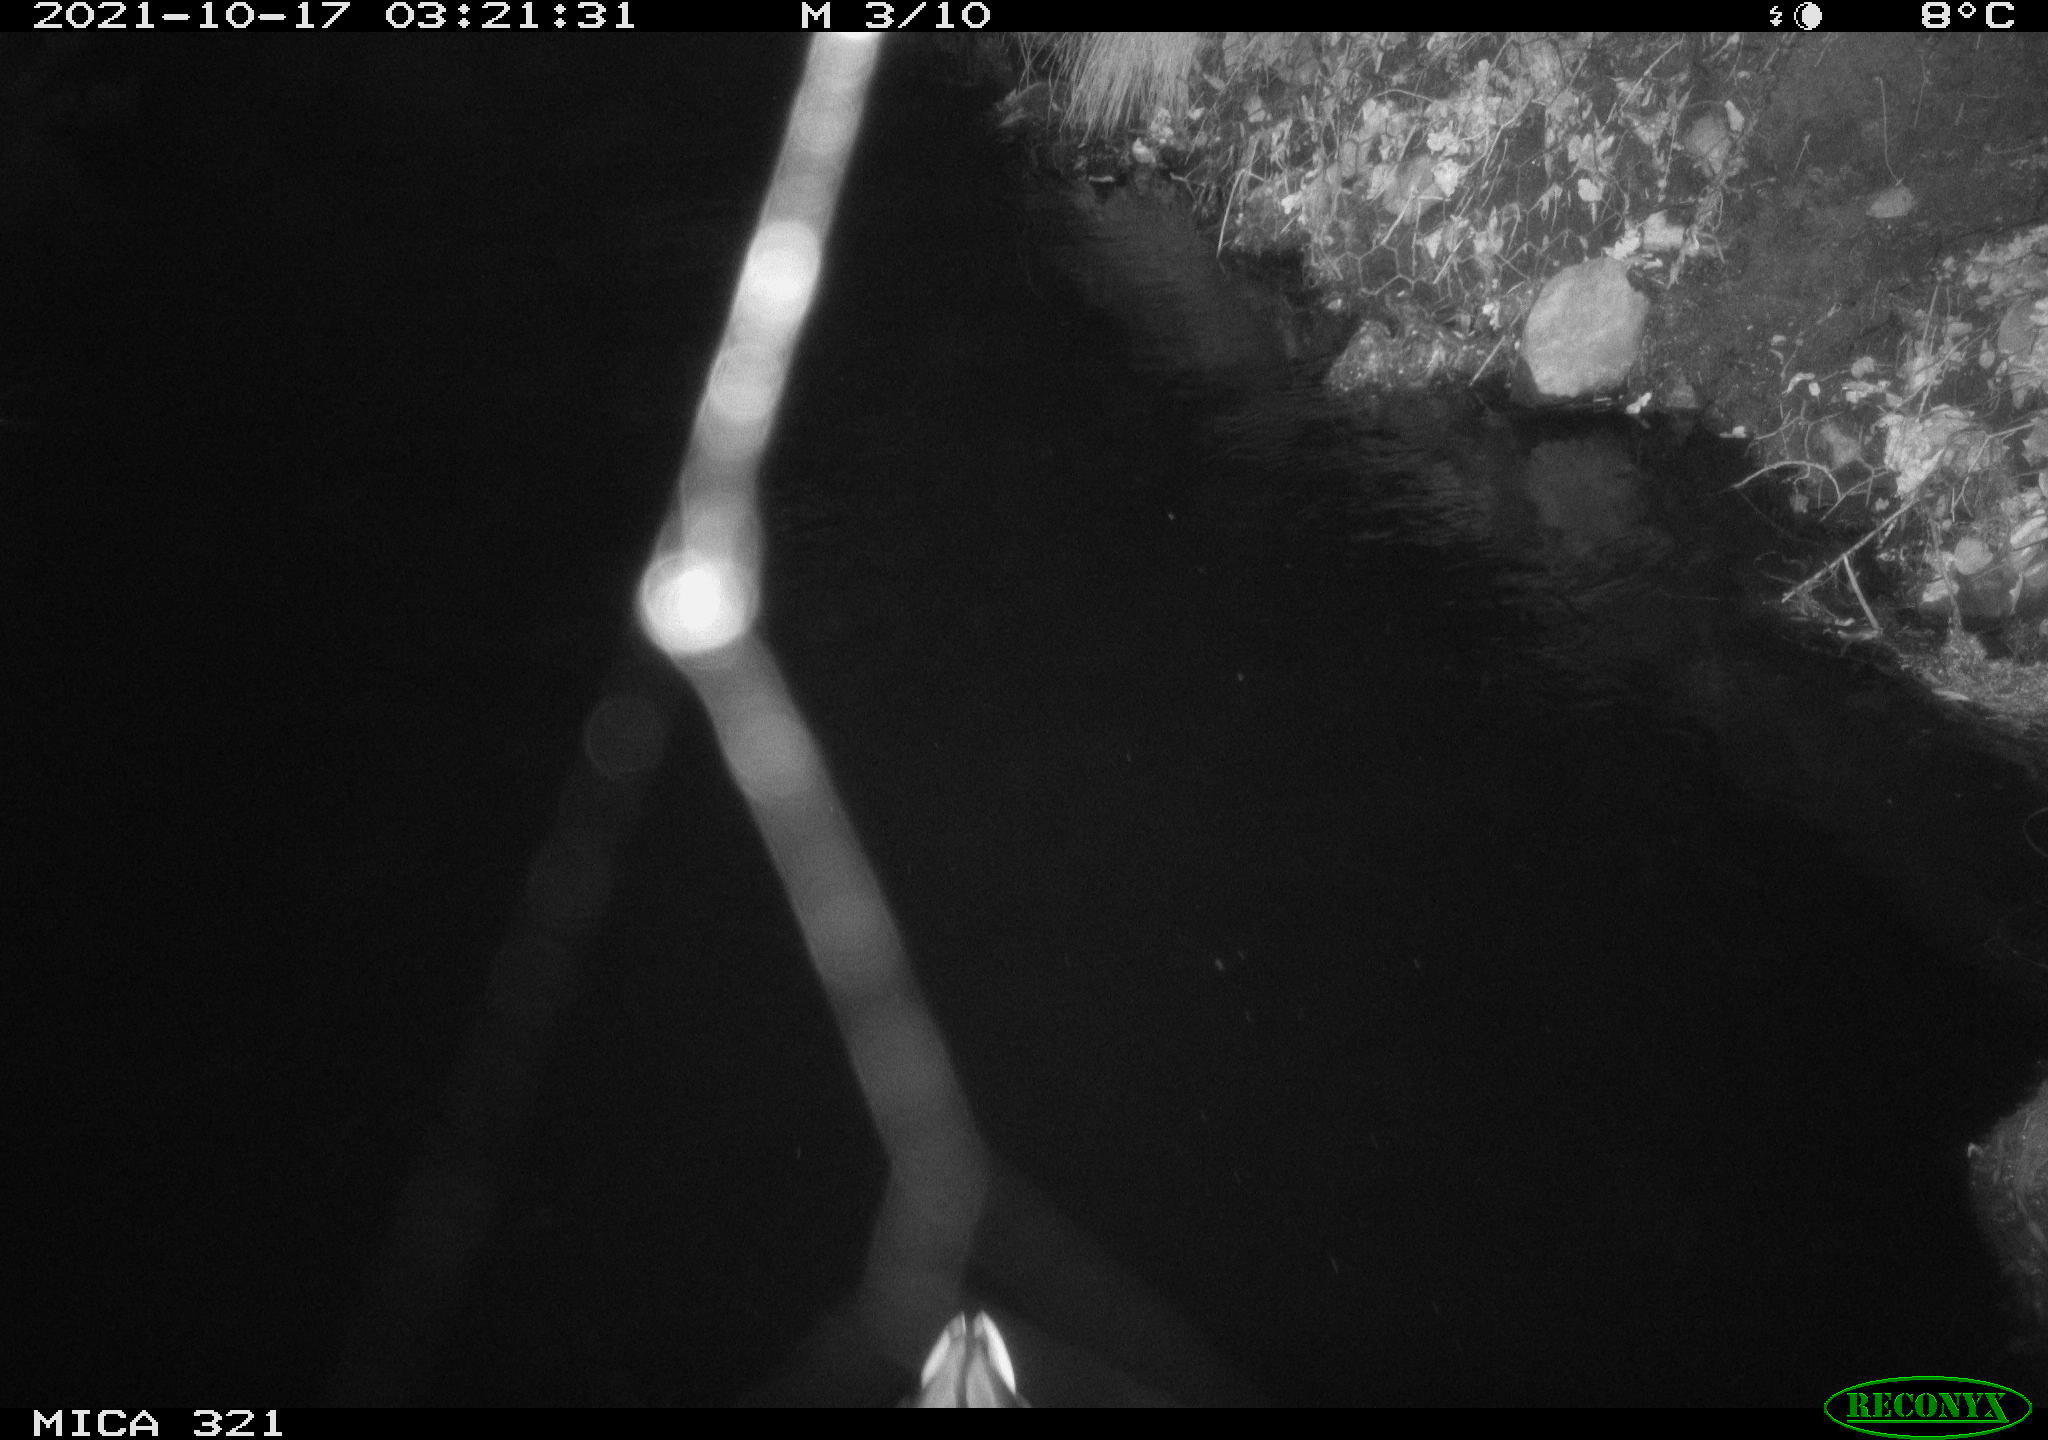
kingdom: Animalia
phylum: Chordata
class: Aves
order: Anseriformes
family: Anatidae
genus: Anas
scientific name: Anas platyrhynchos
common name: Mallard
